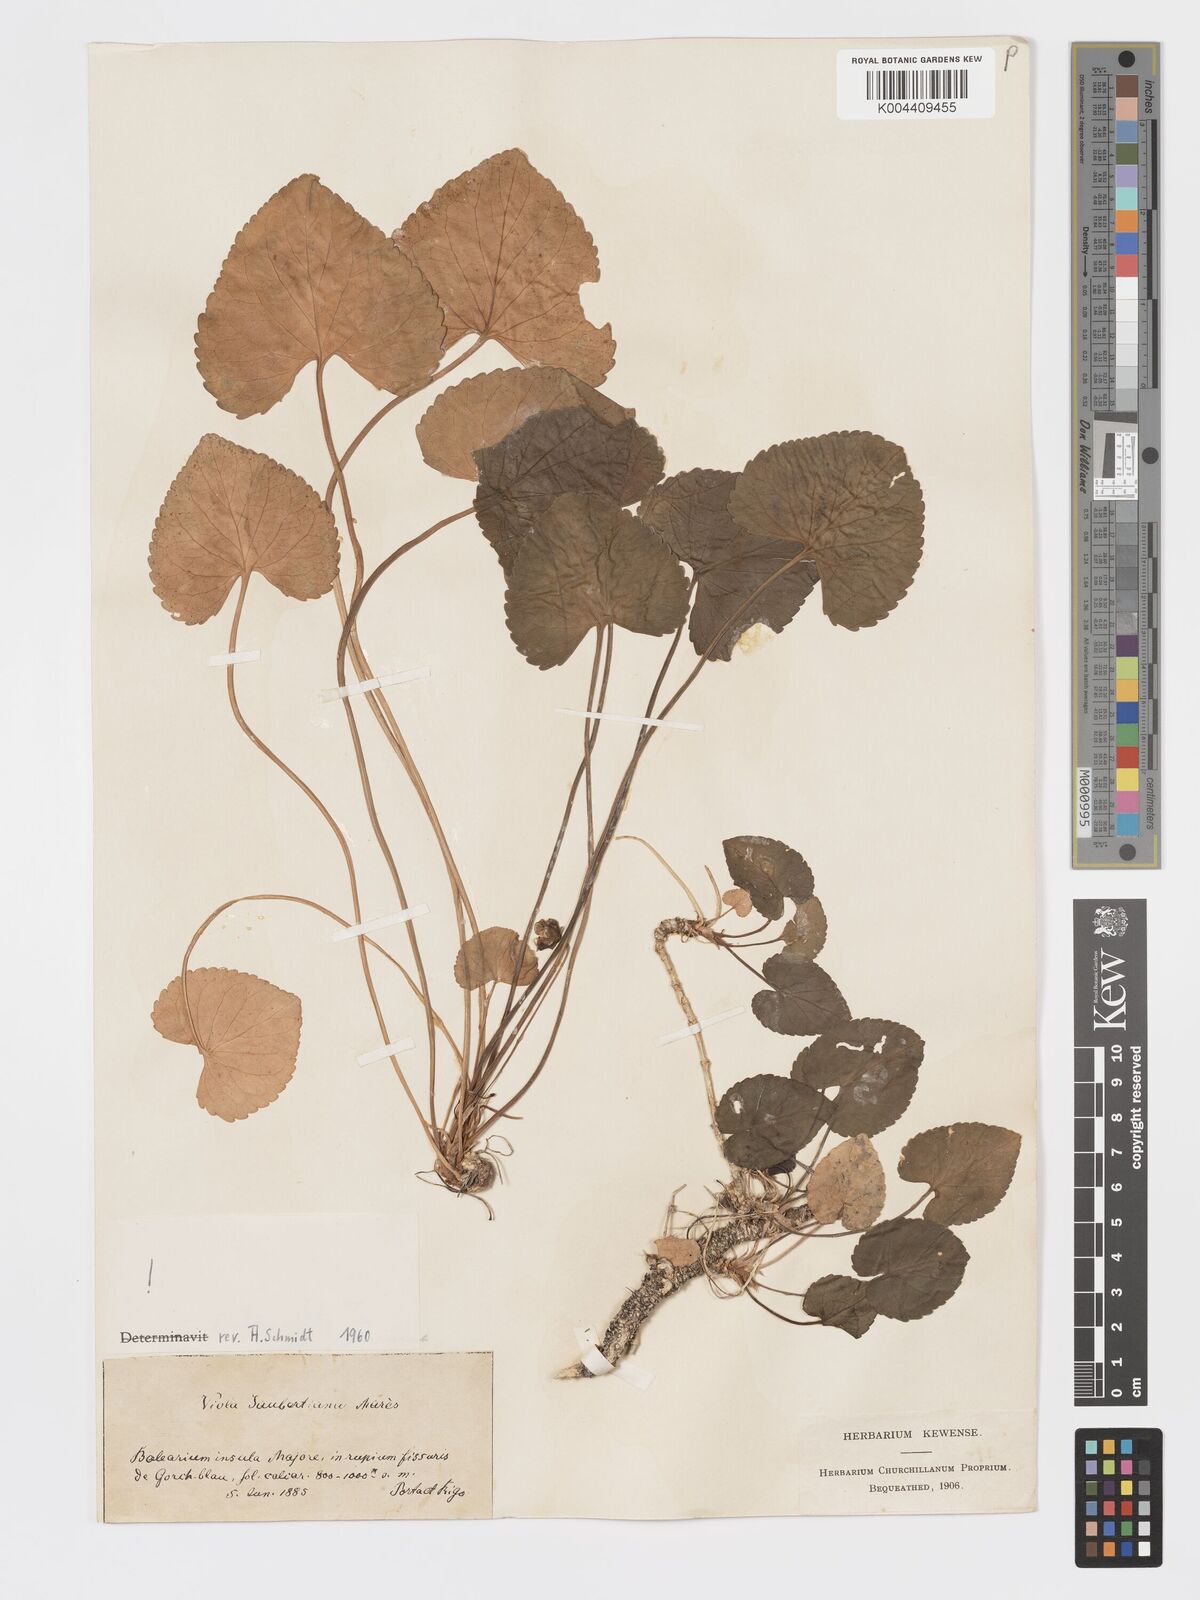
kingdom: Plantae
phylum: Tracheophyta
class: Magnoliopsida
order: Malpighiales
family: Violaceae
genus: Viola
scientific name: Viola jaubertiana
